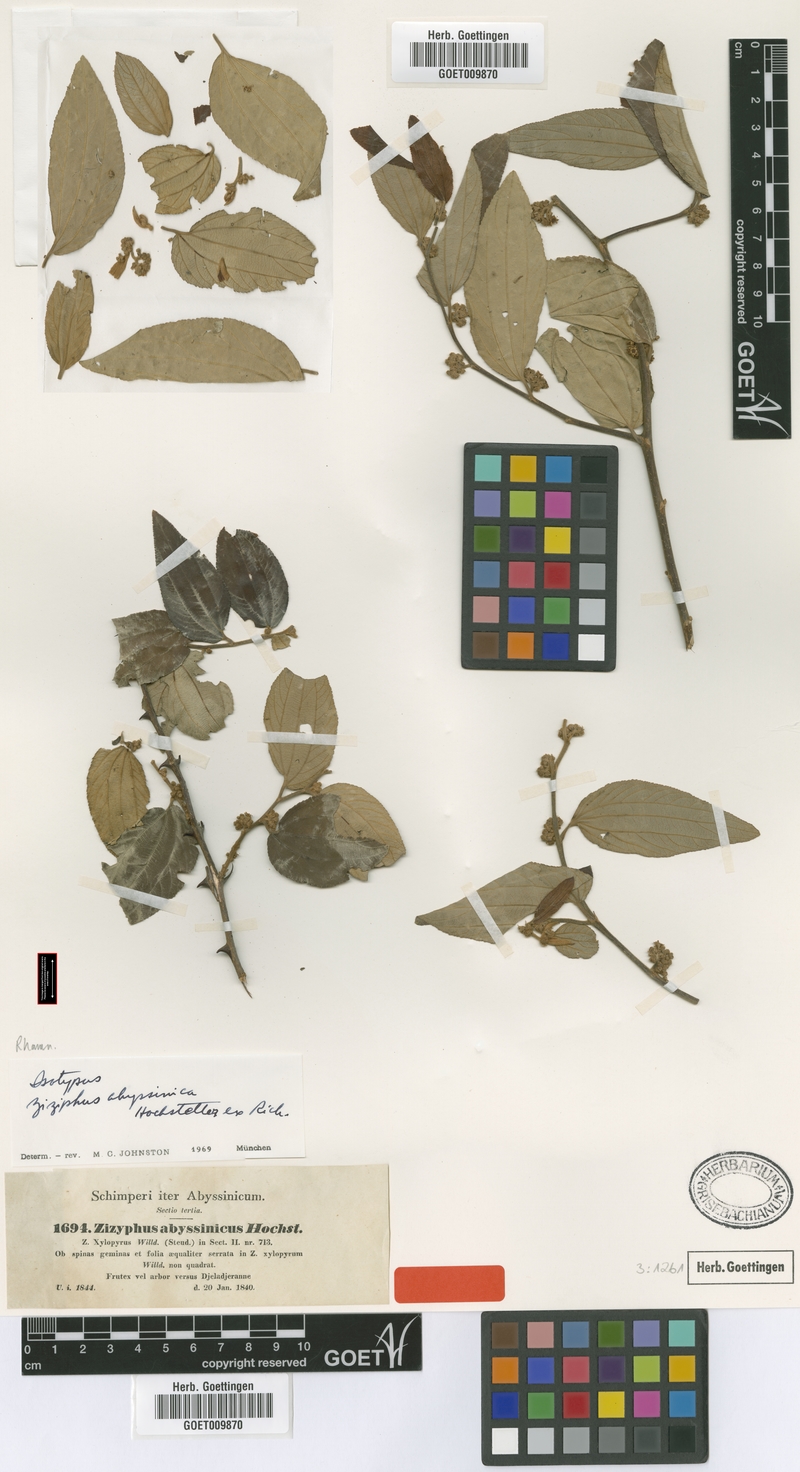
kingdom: Plantae
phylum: Tracheophyta
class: Magnoliopsida
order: Rosales
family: Rhamnaceae
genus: Ziziphus
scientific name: Ziziphus abyssinica
